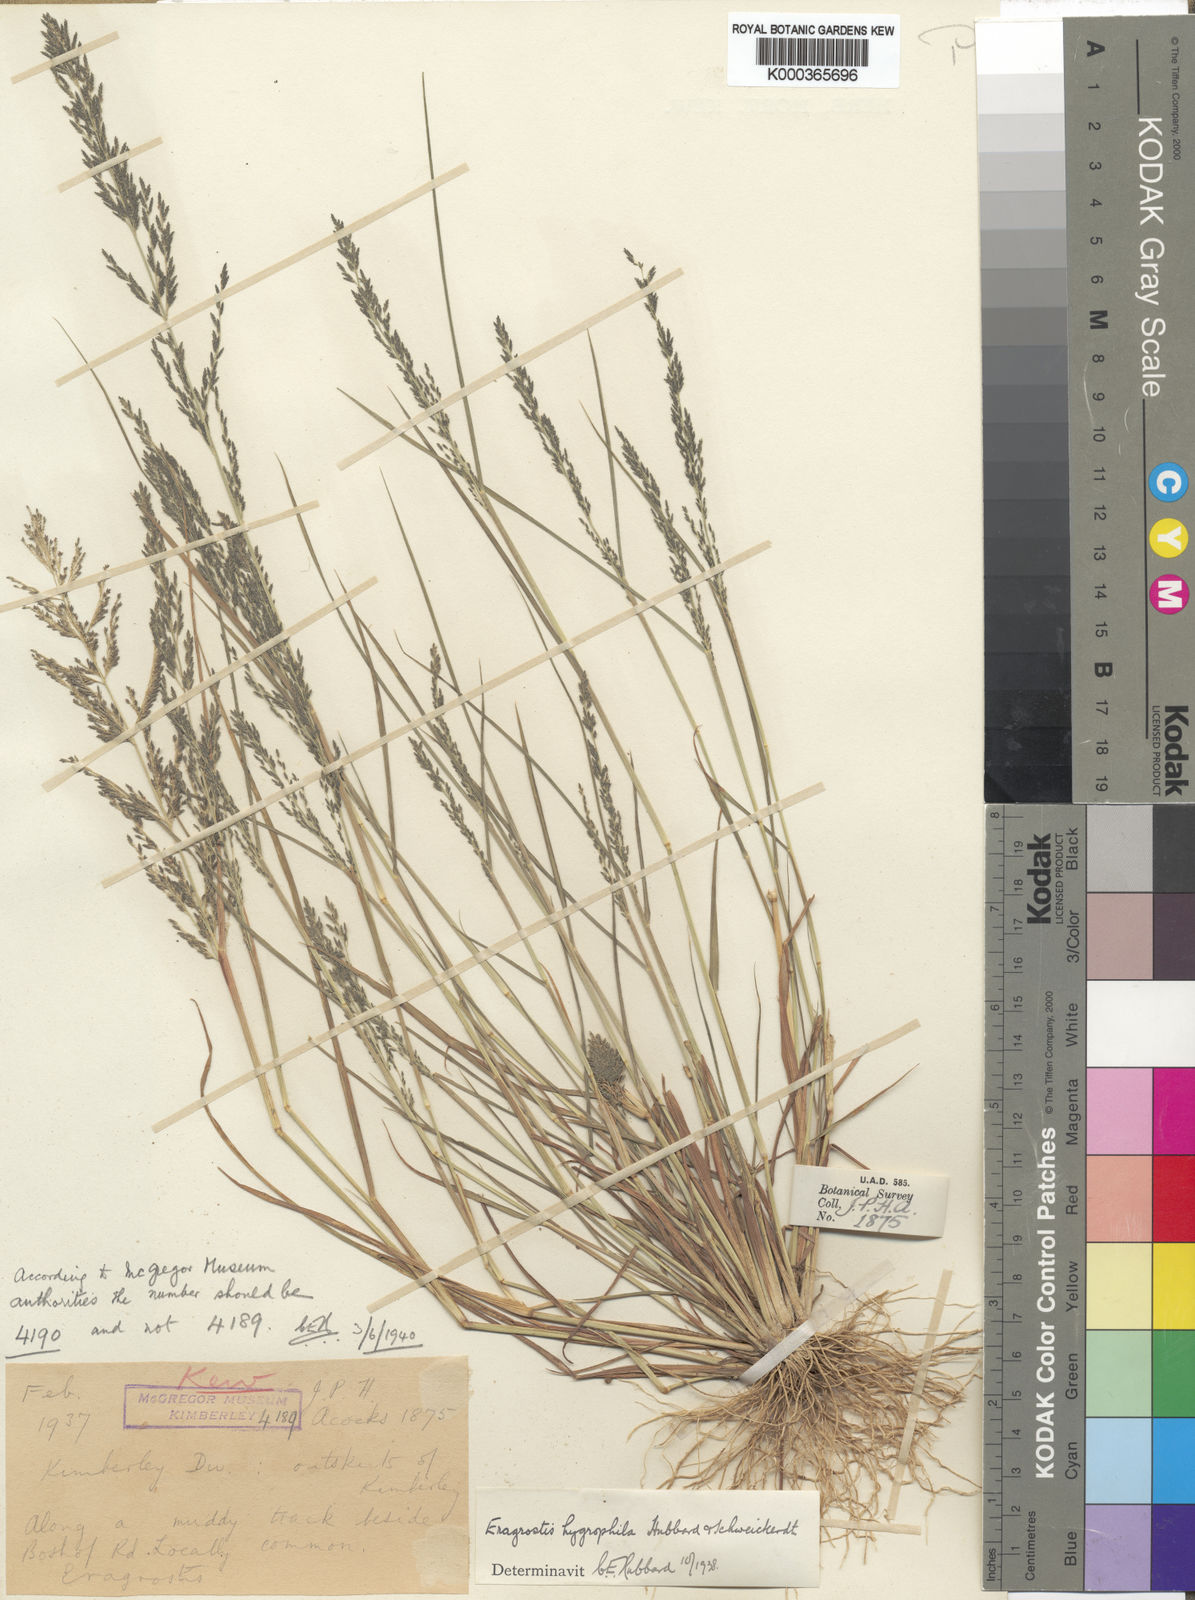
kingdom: Plantae
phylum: Tracheophyta
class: Liliopsida
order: Poales
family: Poaceae
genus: Eragrostis
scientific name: Eragrostis homomalla
